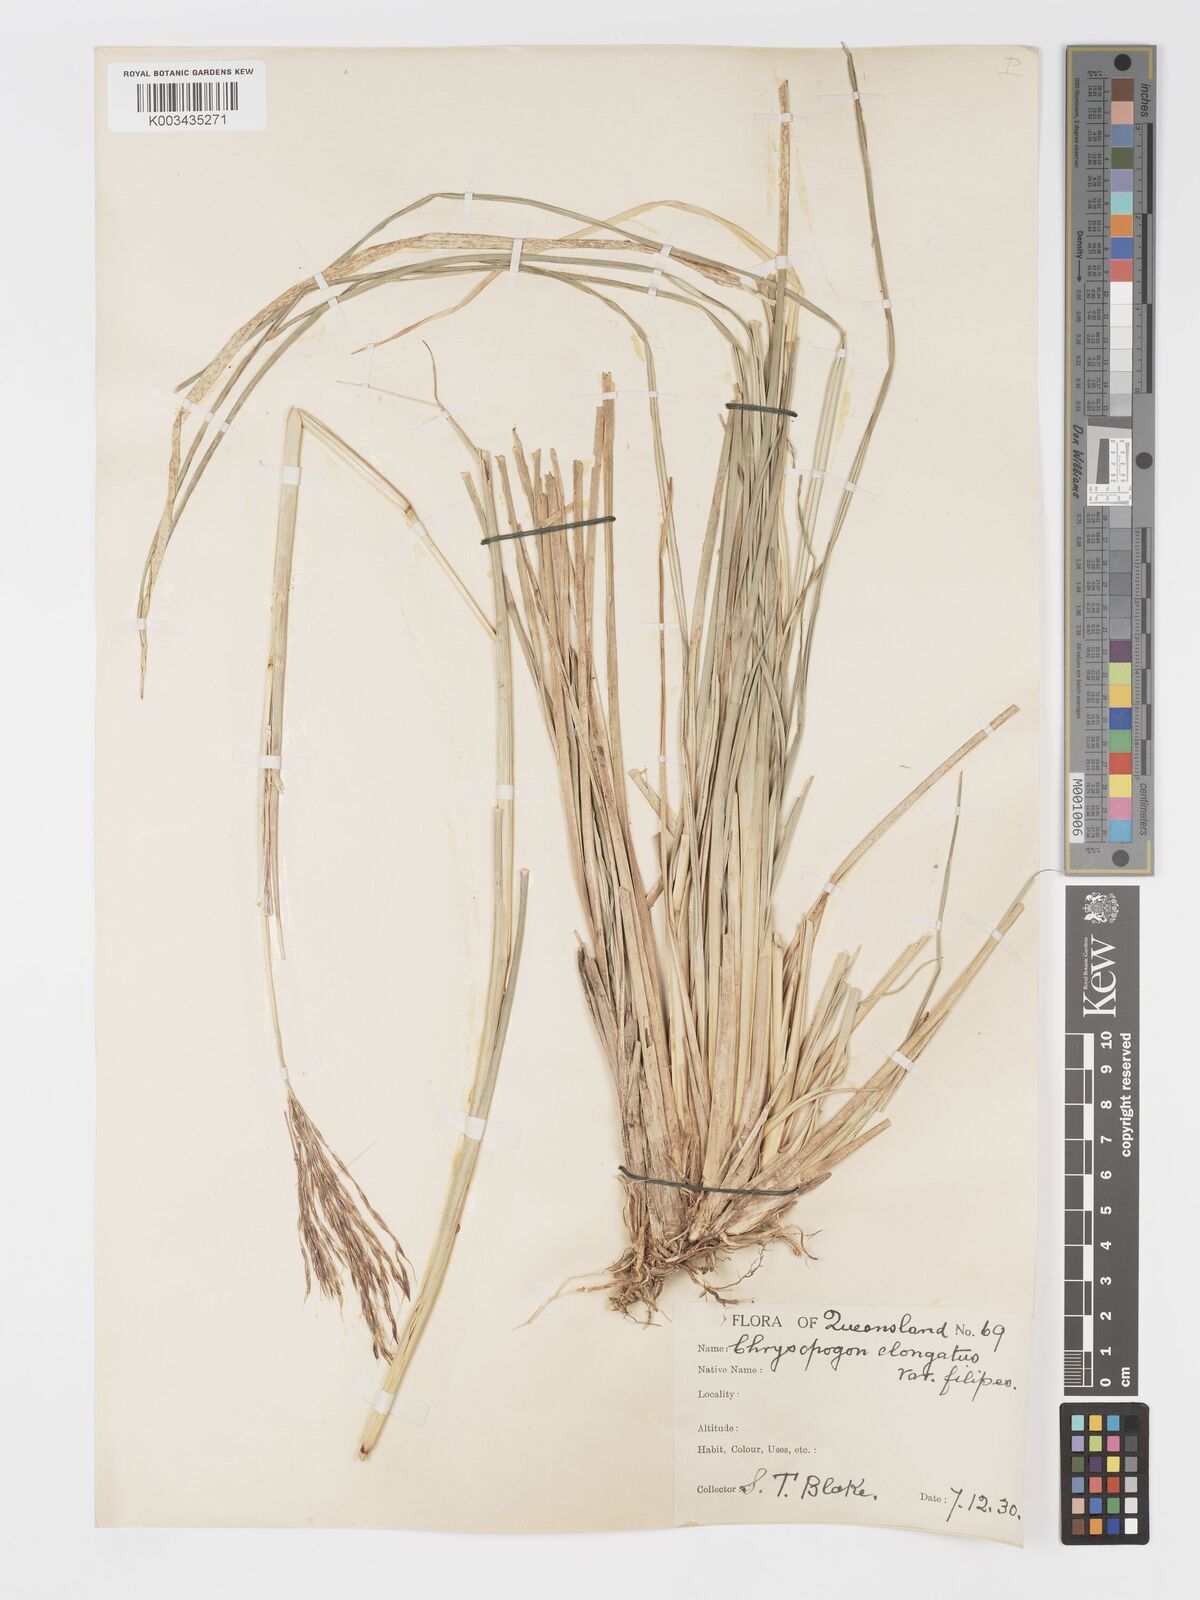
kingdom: Plantae
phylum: Tracheophyta
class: Liliopsida
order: Poales
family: Poaceae
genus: Chrysopogon
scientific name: Chrysopogon filipes
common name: Australian vetiver
